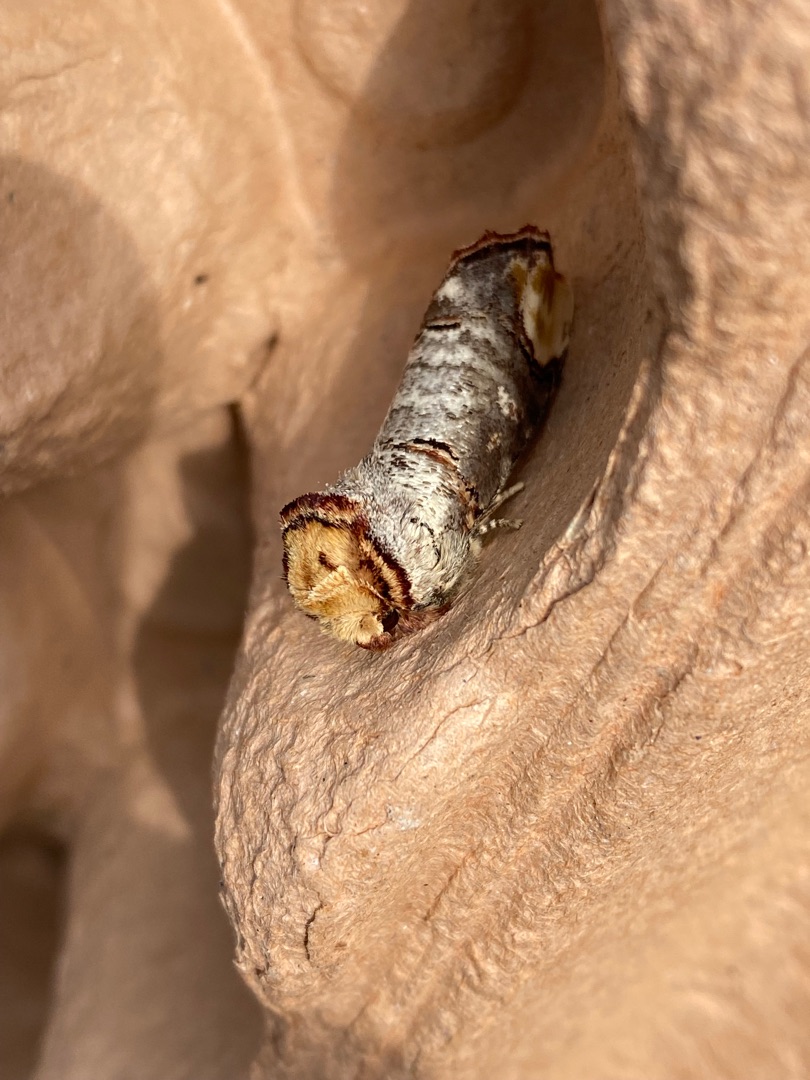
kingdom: Animalia
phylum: Arthropoda
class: Insecta
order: Lepidoptera
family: Notodontidae
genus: Phalera
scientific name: Phalera bucephala
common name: Måneplet
